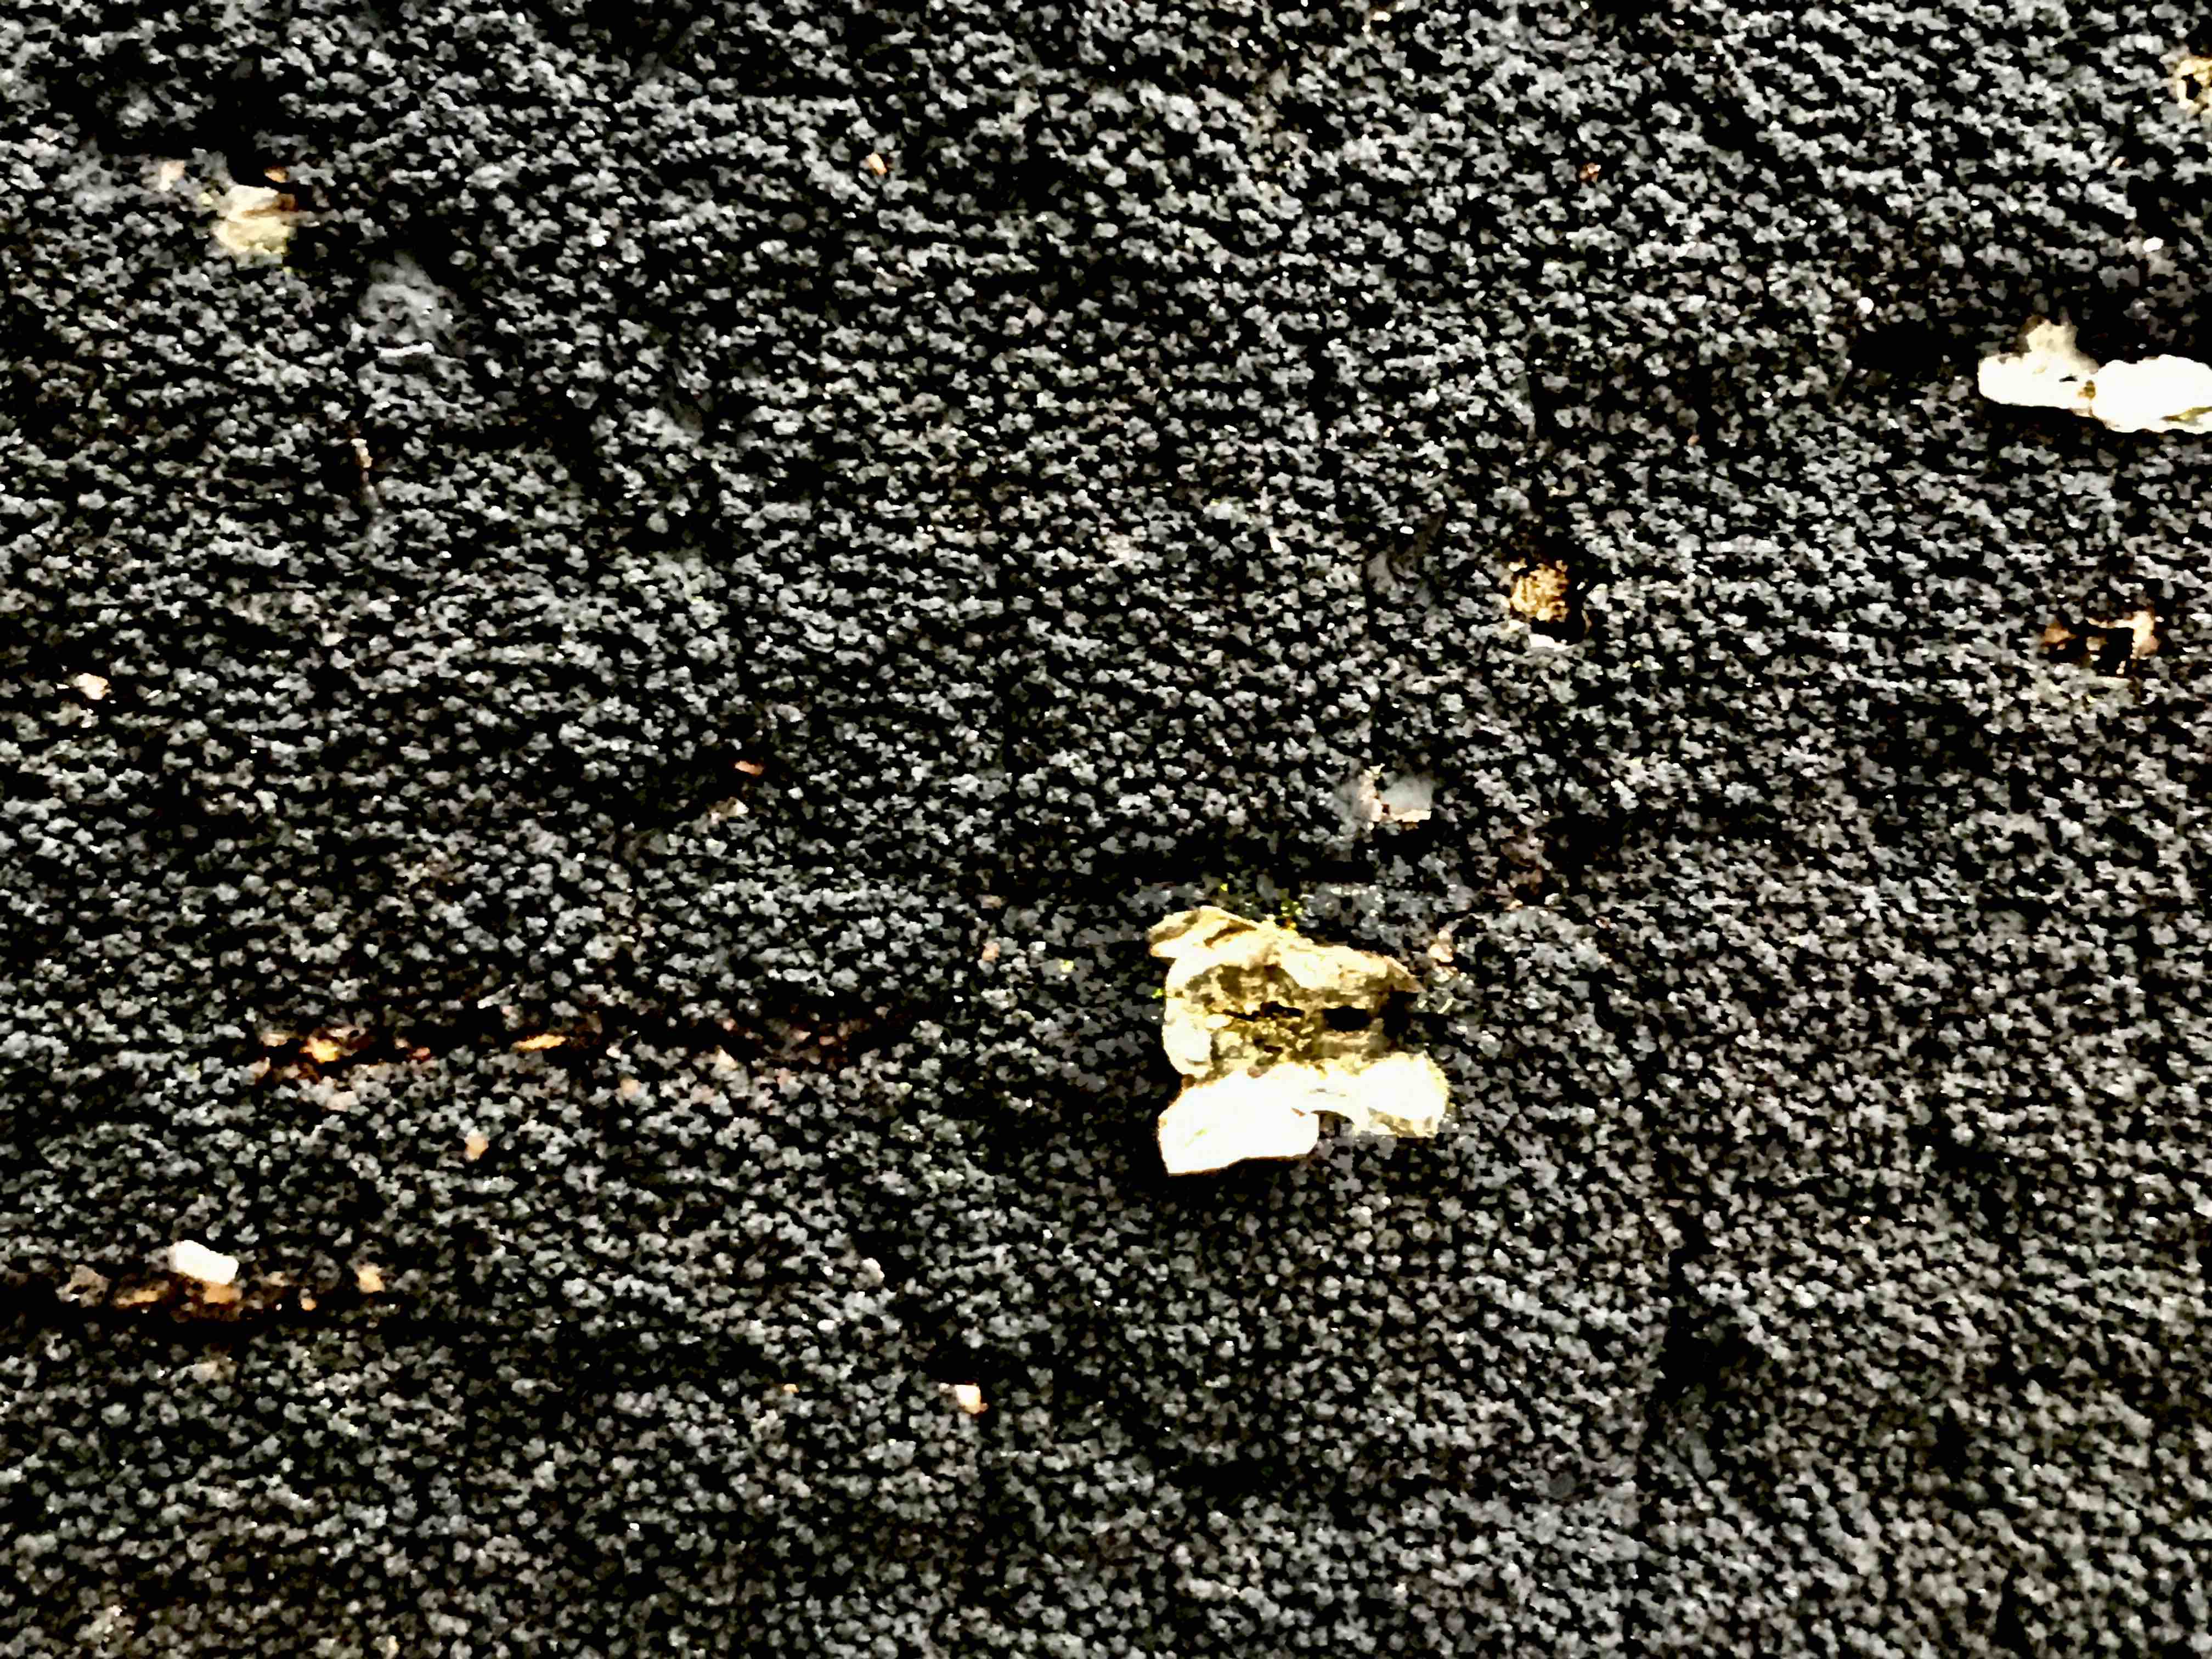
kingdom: Fungi
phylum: Ascomycota
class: Sordariomycetes
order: Xylariales
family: Diatrypaceae
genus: Eutypa
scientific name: Eutypa spinosa
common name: grov kulskorpe
